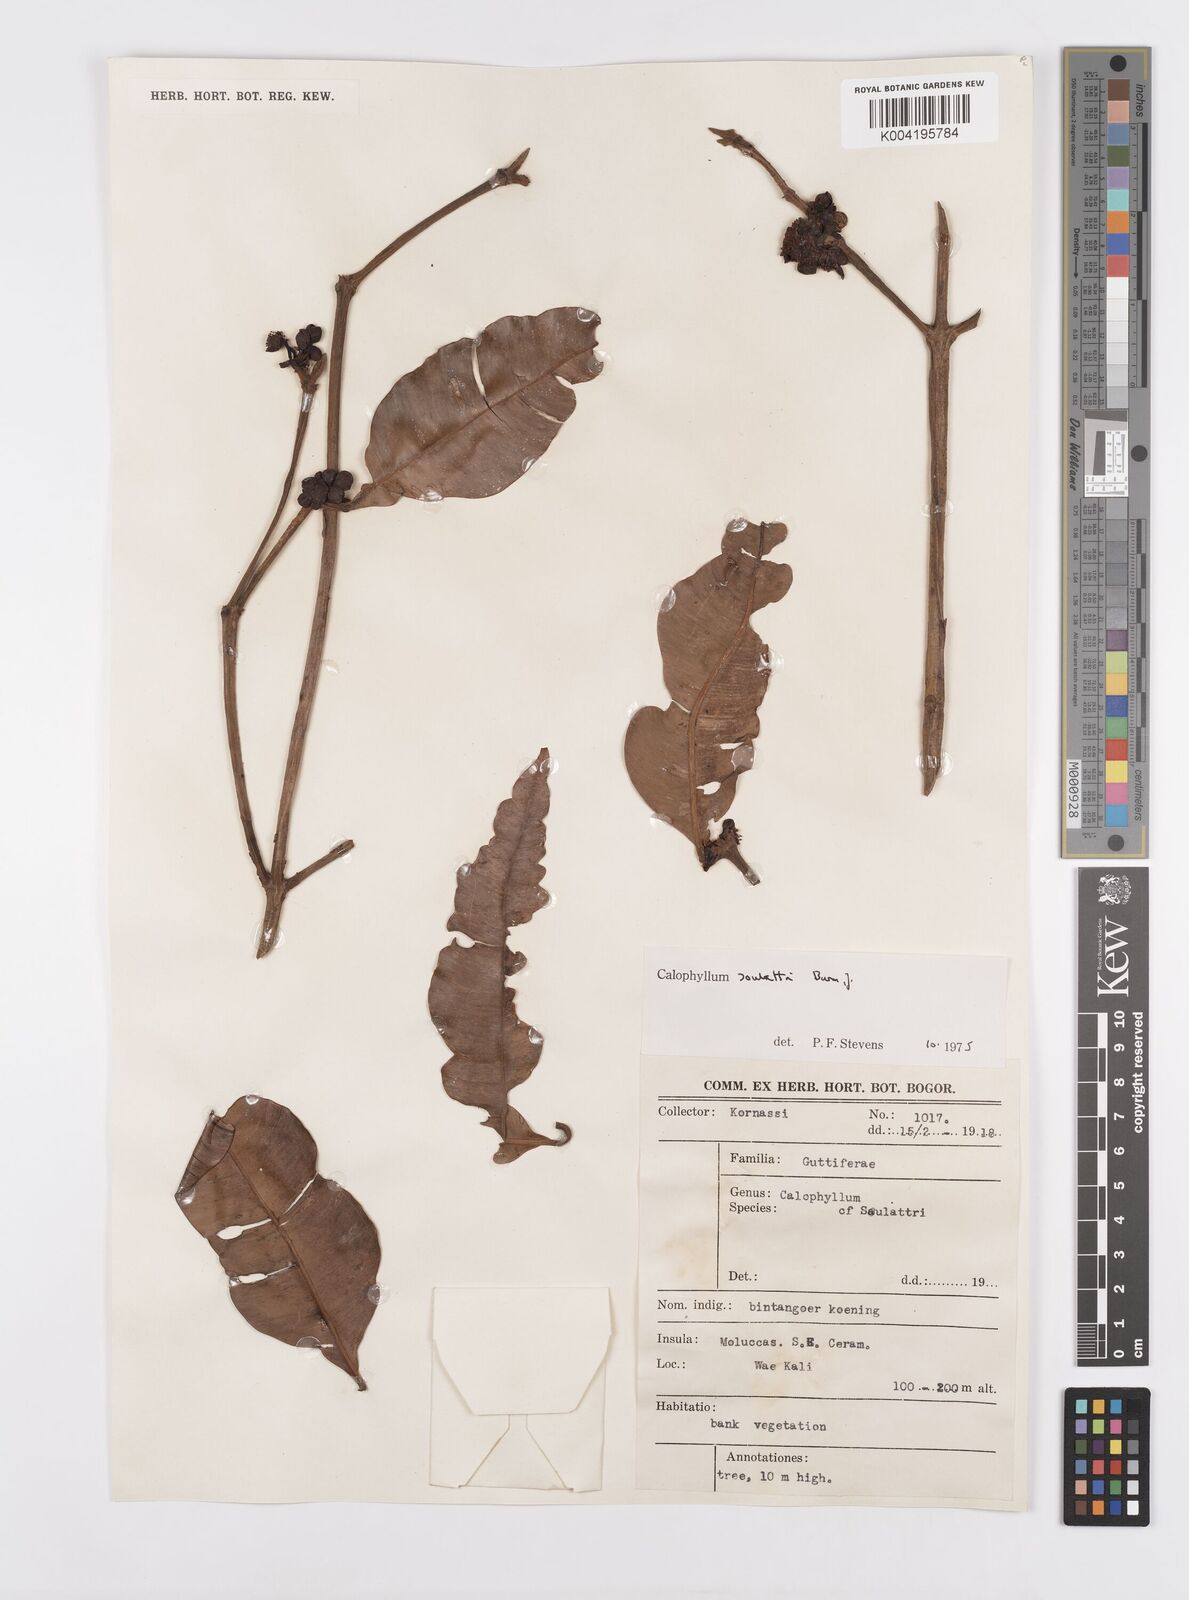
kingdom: Plantae
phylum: Tracheophyta
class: Magnoliopsida
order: Malpighiales
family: Calophyllaceae
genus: Calophyllum
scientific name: Calophyllum soulattri
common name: Bitangoor boonot
